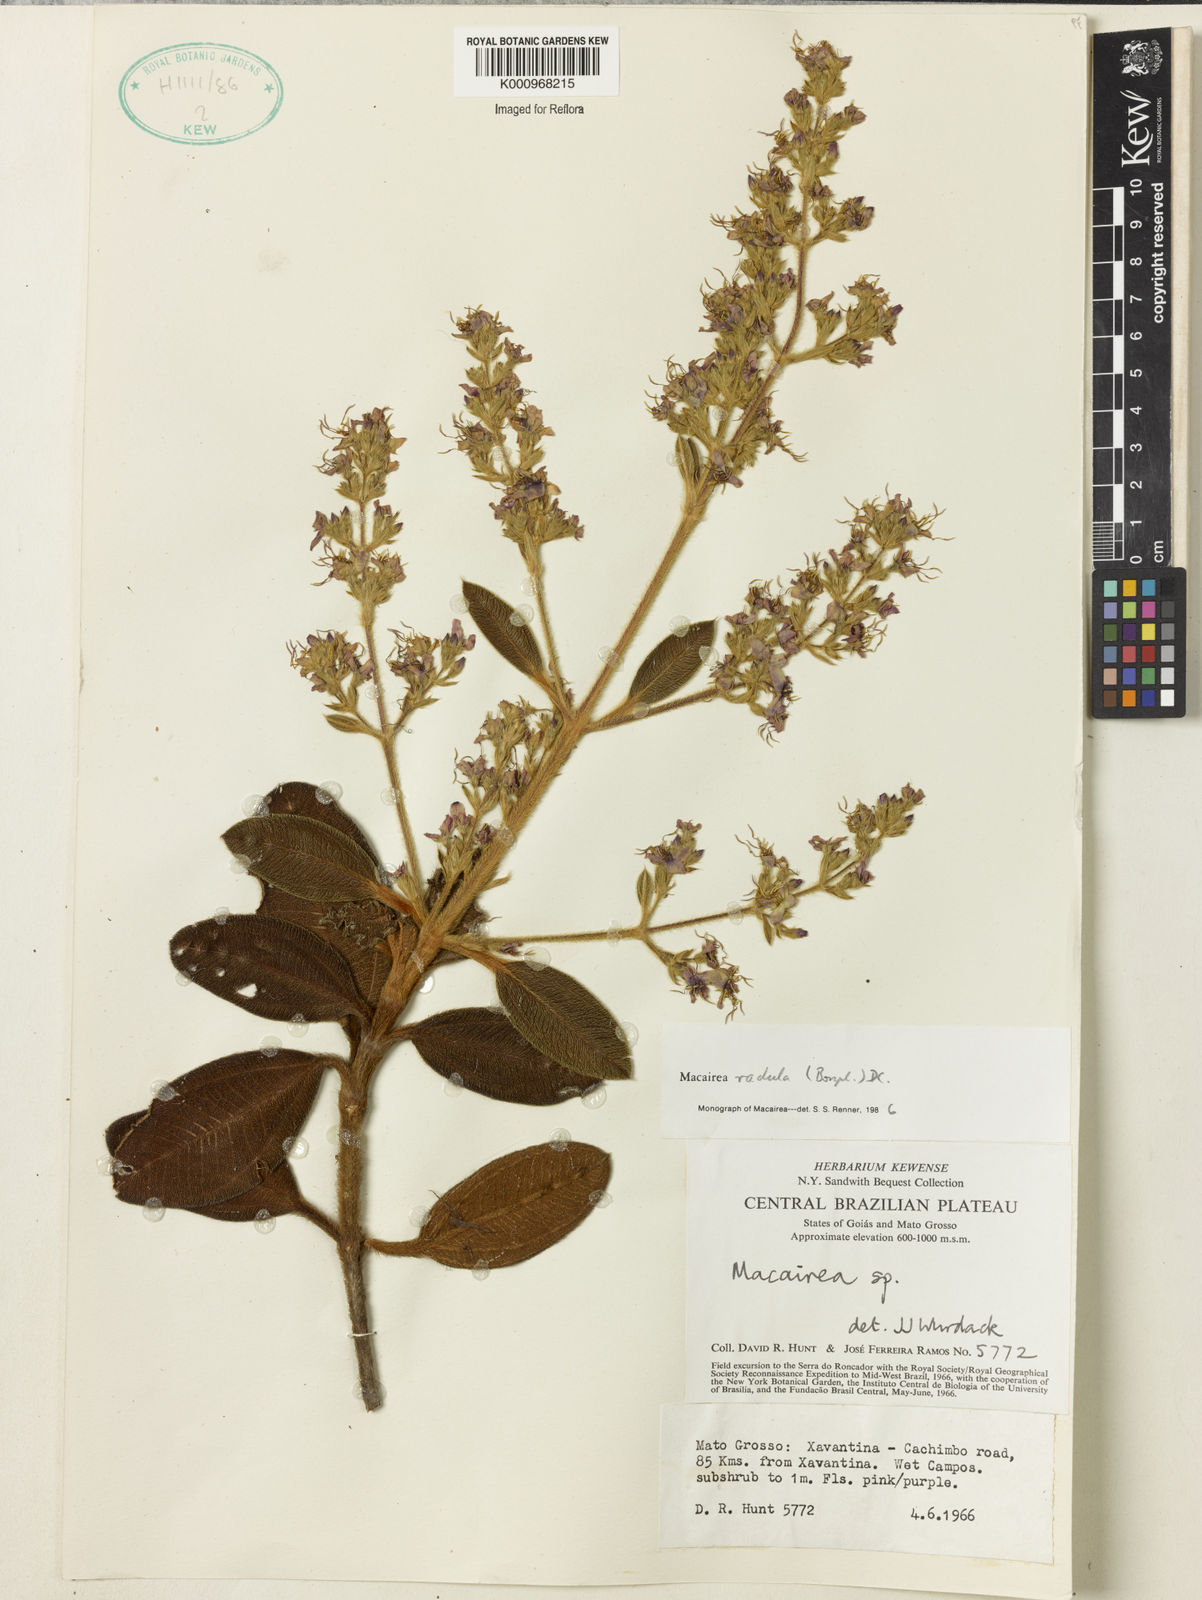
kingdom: Plantae
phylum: Tracheophyta
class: Magnoliopsida
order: Myrtales
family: Melastomataceae
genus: Macairea
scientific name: Macairea radula
